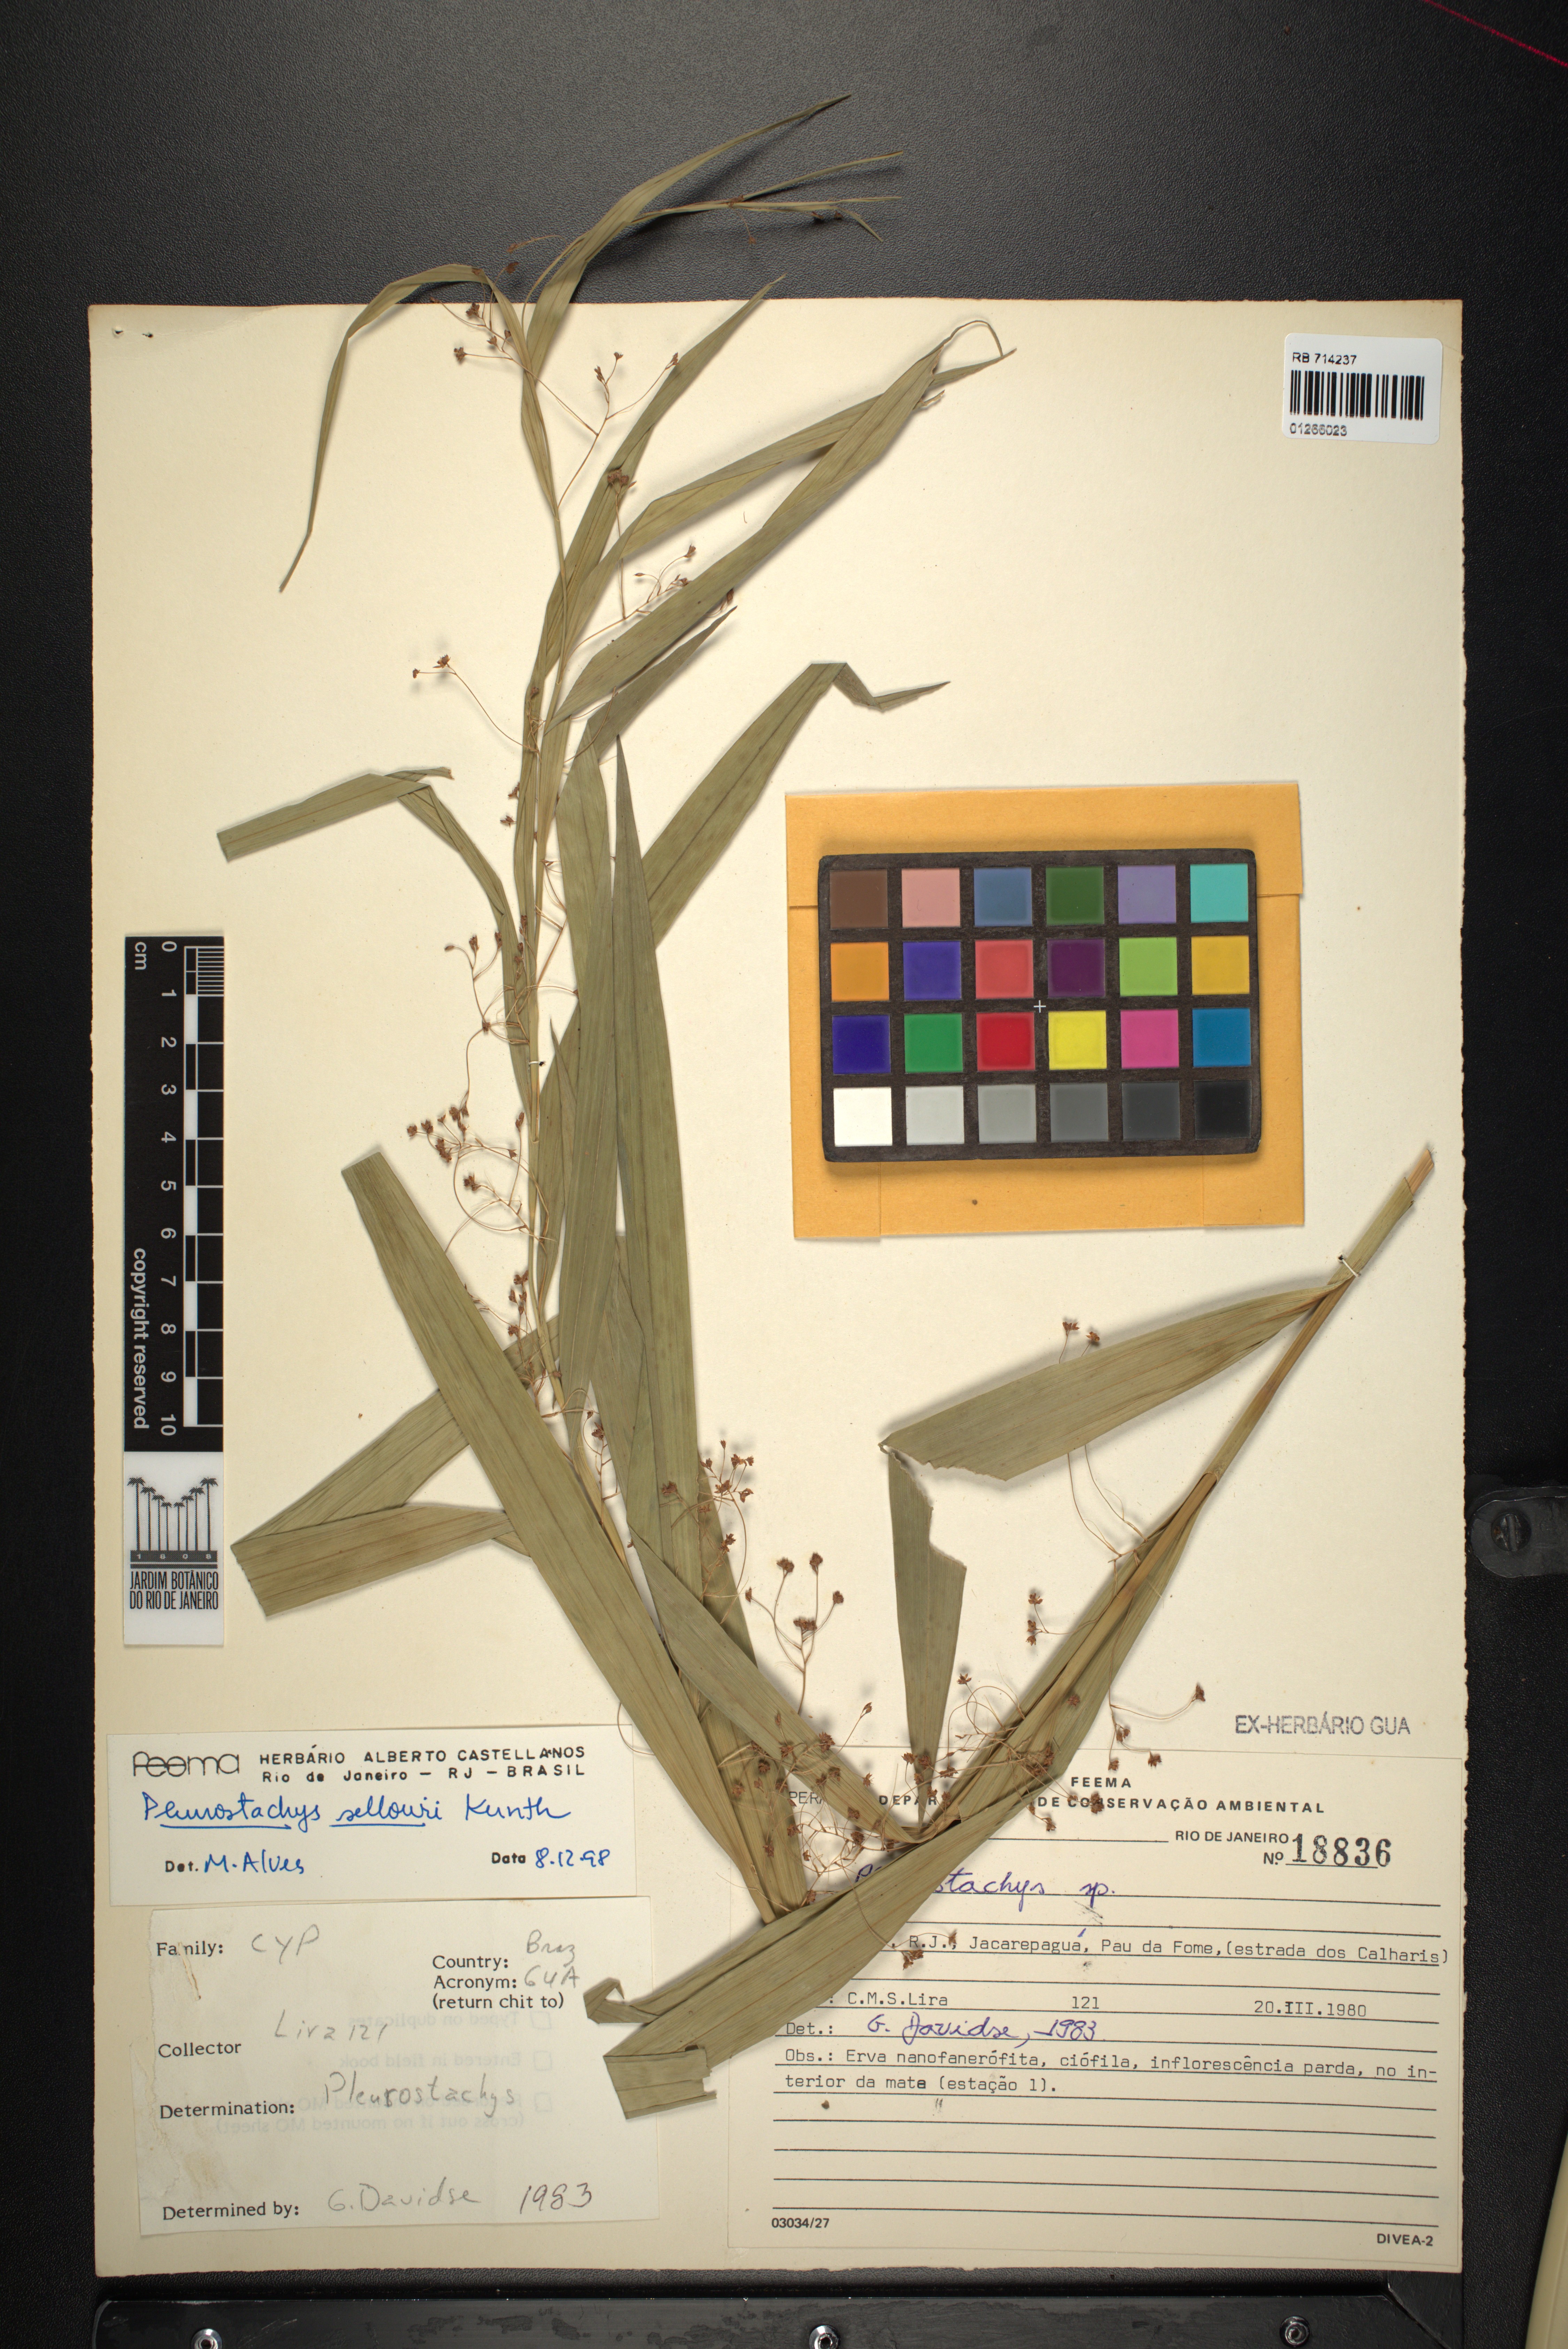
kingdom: Plantae
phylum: Tracheophyta
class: Liliopsida
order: Poales
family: Cyperaceae
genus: Rhynchospora
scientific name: Rhynchospora foliosa
